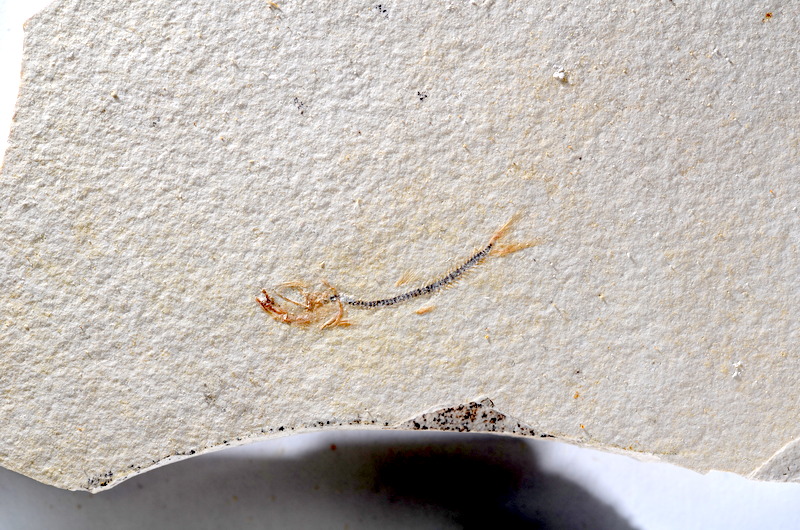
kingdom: Animalia
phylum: Chordata
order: Salmoniformes
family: Orthogonikleithridae
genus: Orthogonikleithrus
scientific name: Orthogonikleithrus hoelli
